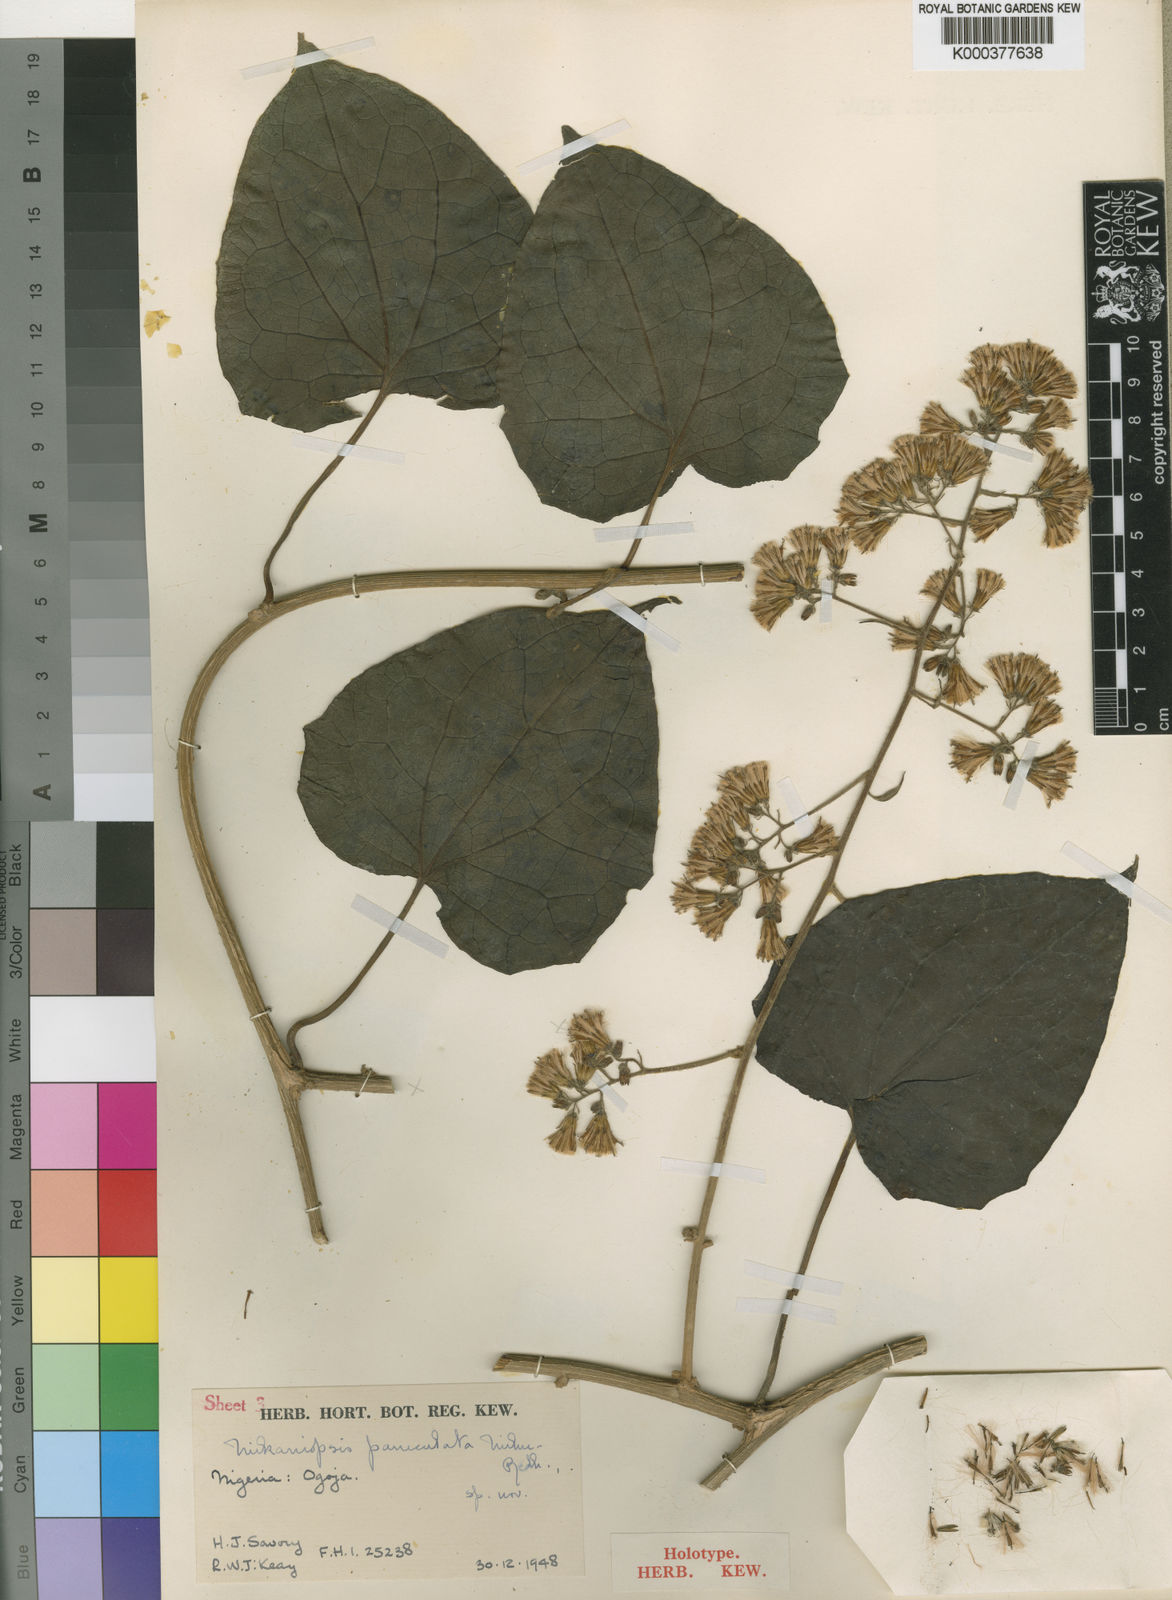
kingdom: Plantae
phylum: Tracheophyta
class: Magnoliopsida
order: Asterales
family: Asteraceae
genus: Mikaniopsis
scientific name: Mikaniopsis paniculata
